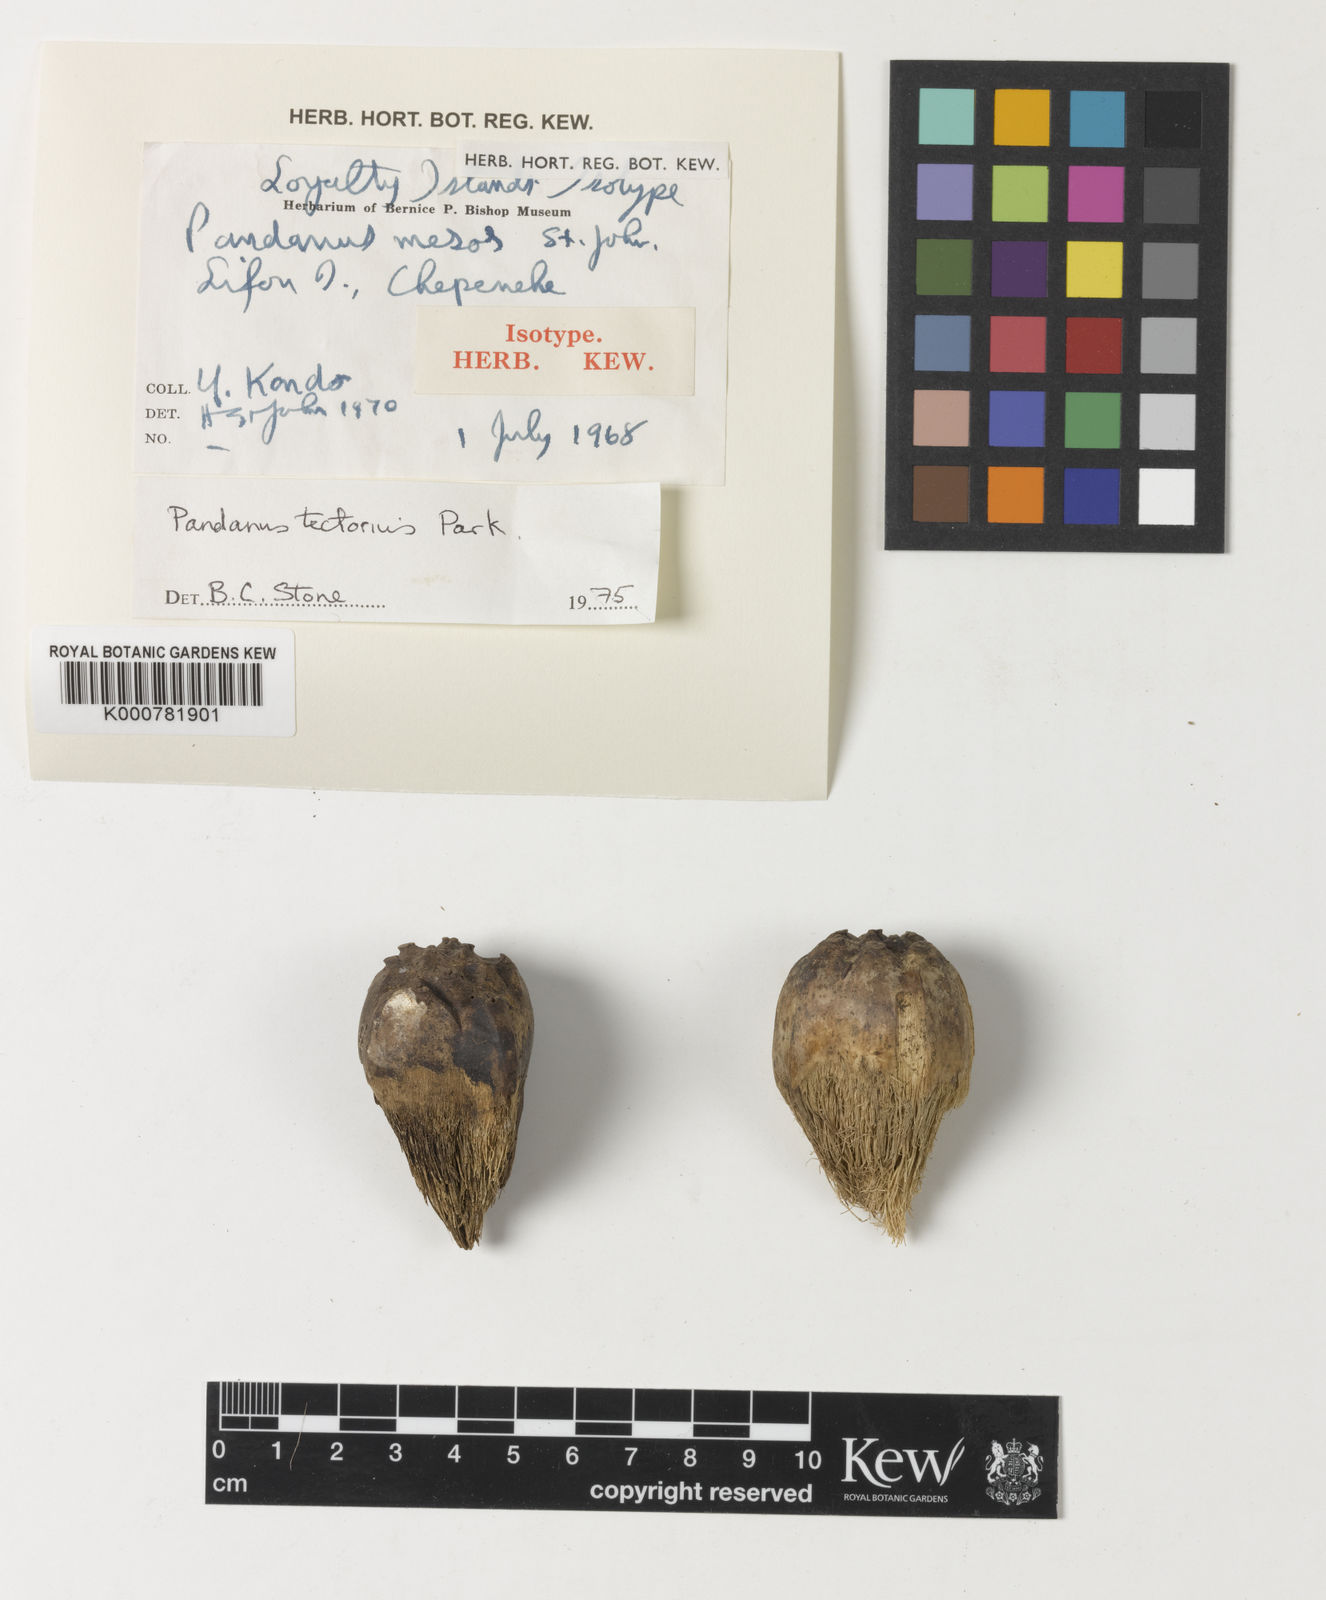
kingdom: Plantae
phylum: Tracheophyta
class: Liliopsida
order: Pandanales
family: Pandanaceae
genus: Pandanus
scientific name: Pandanus
